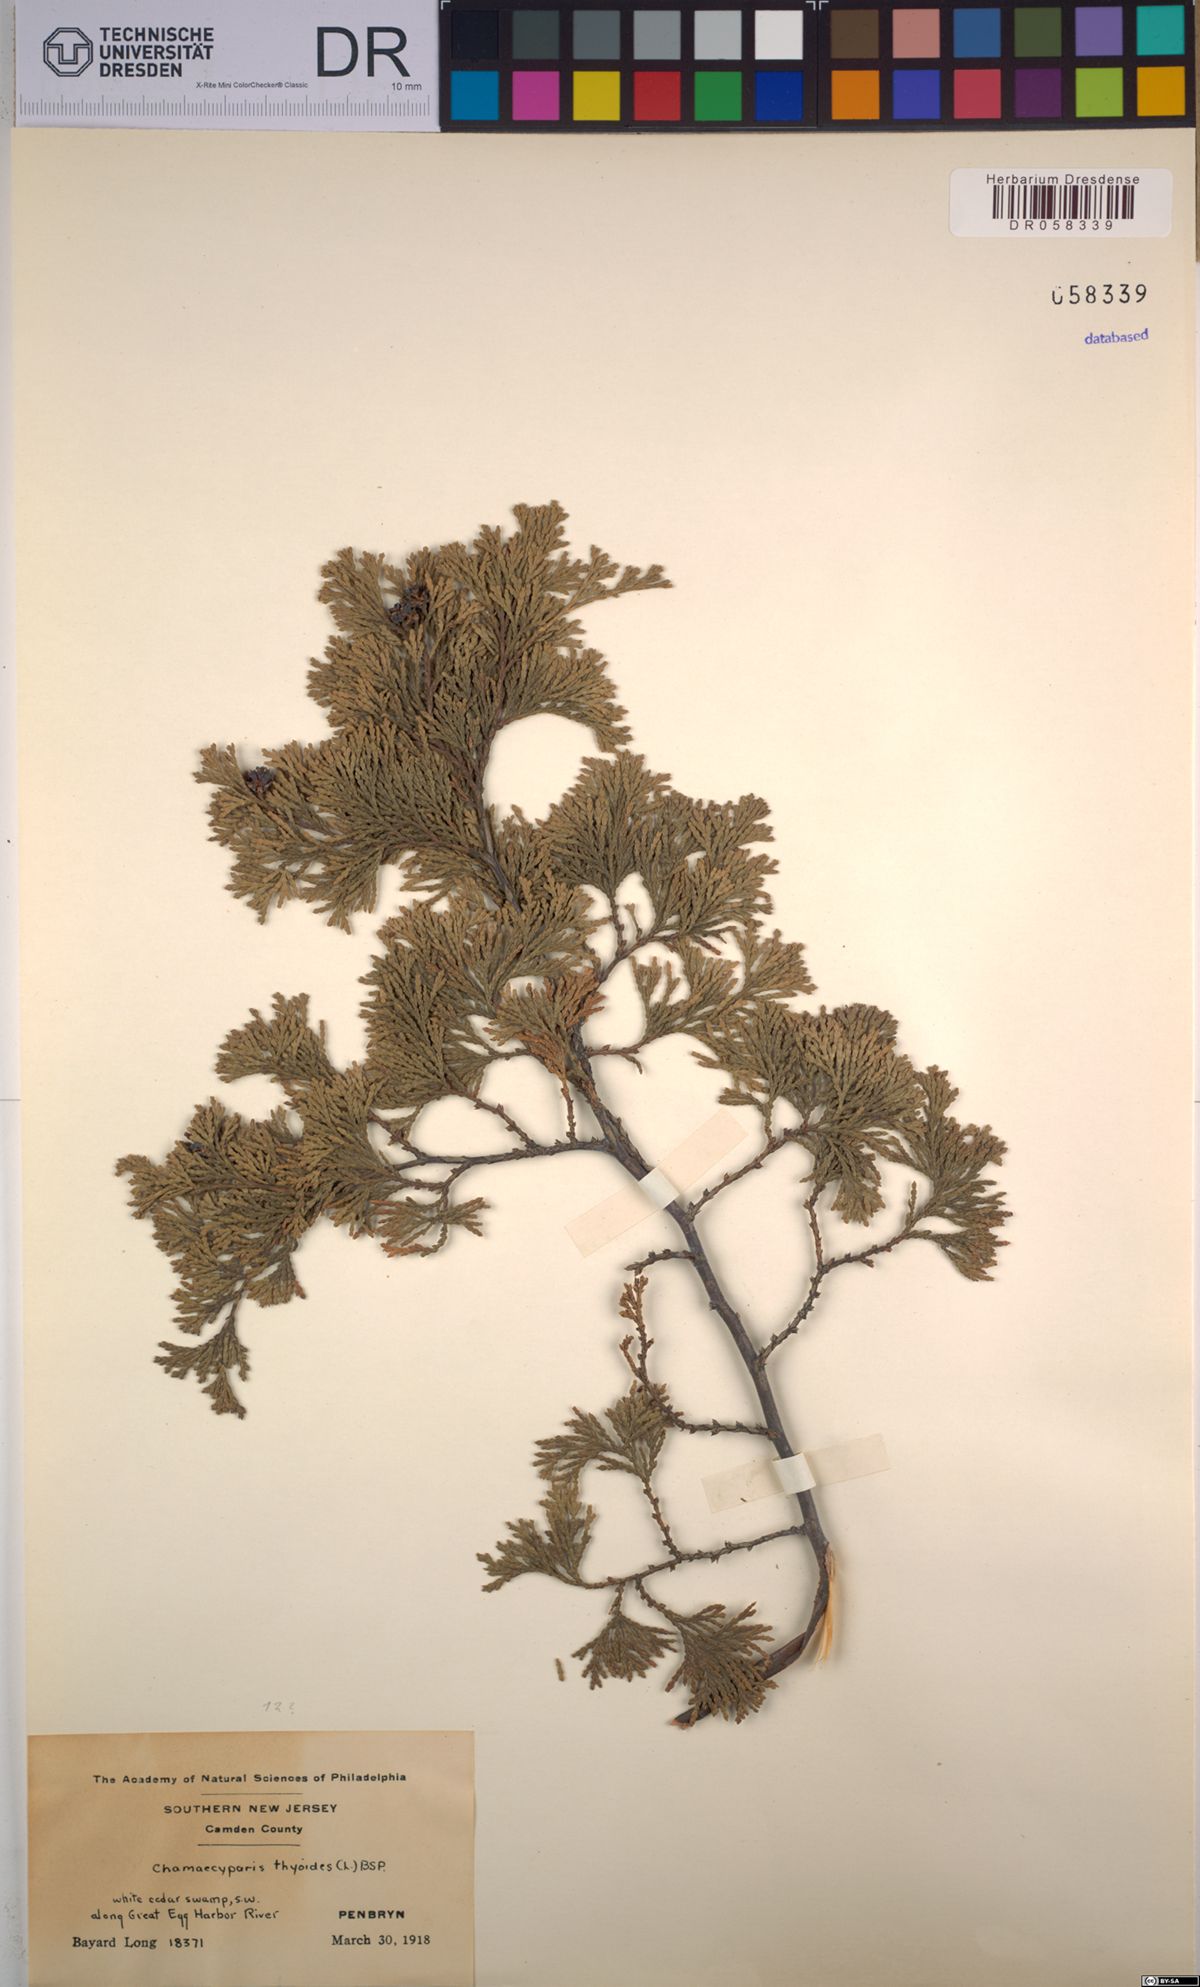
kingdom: Plantae
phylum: Tracheophyta
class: Pinopsida
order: Pinales
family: Cupressaceae
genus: Chamaecyparis
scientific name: Chamaecyparis thyoides
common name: Atlantic white cedar
